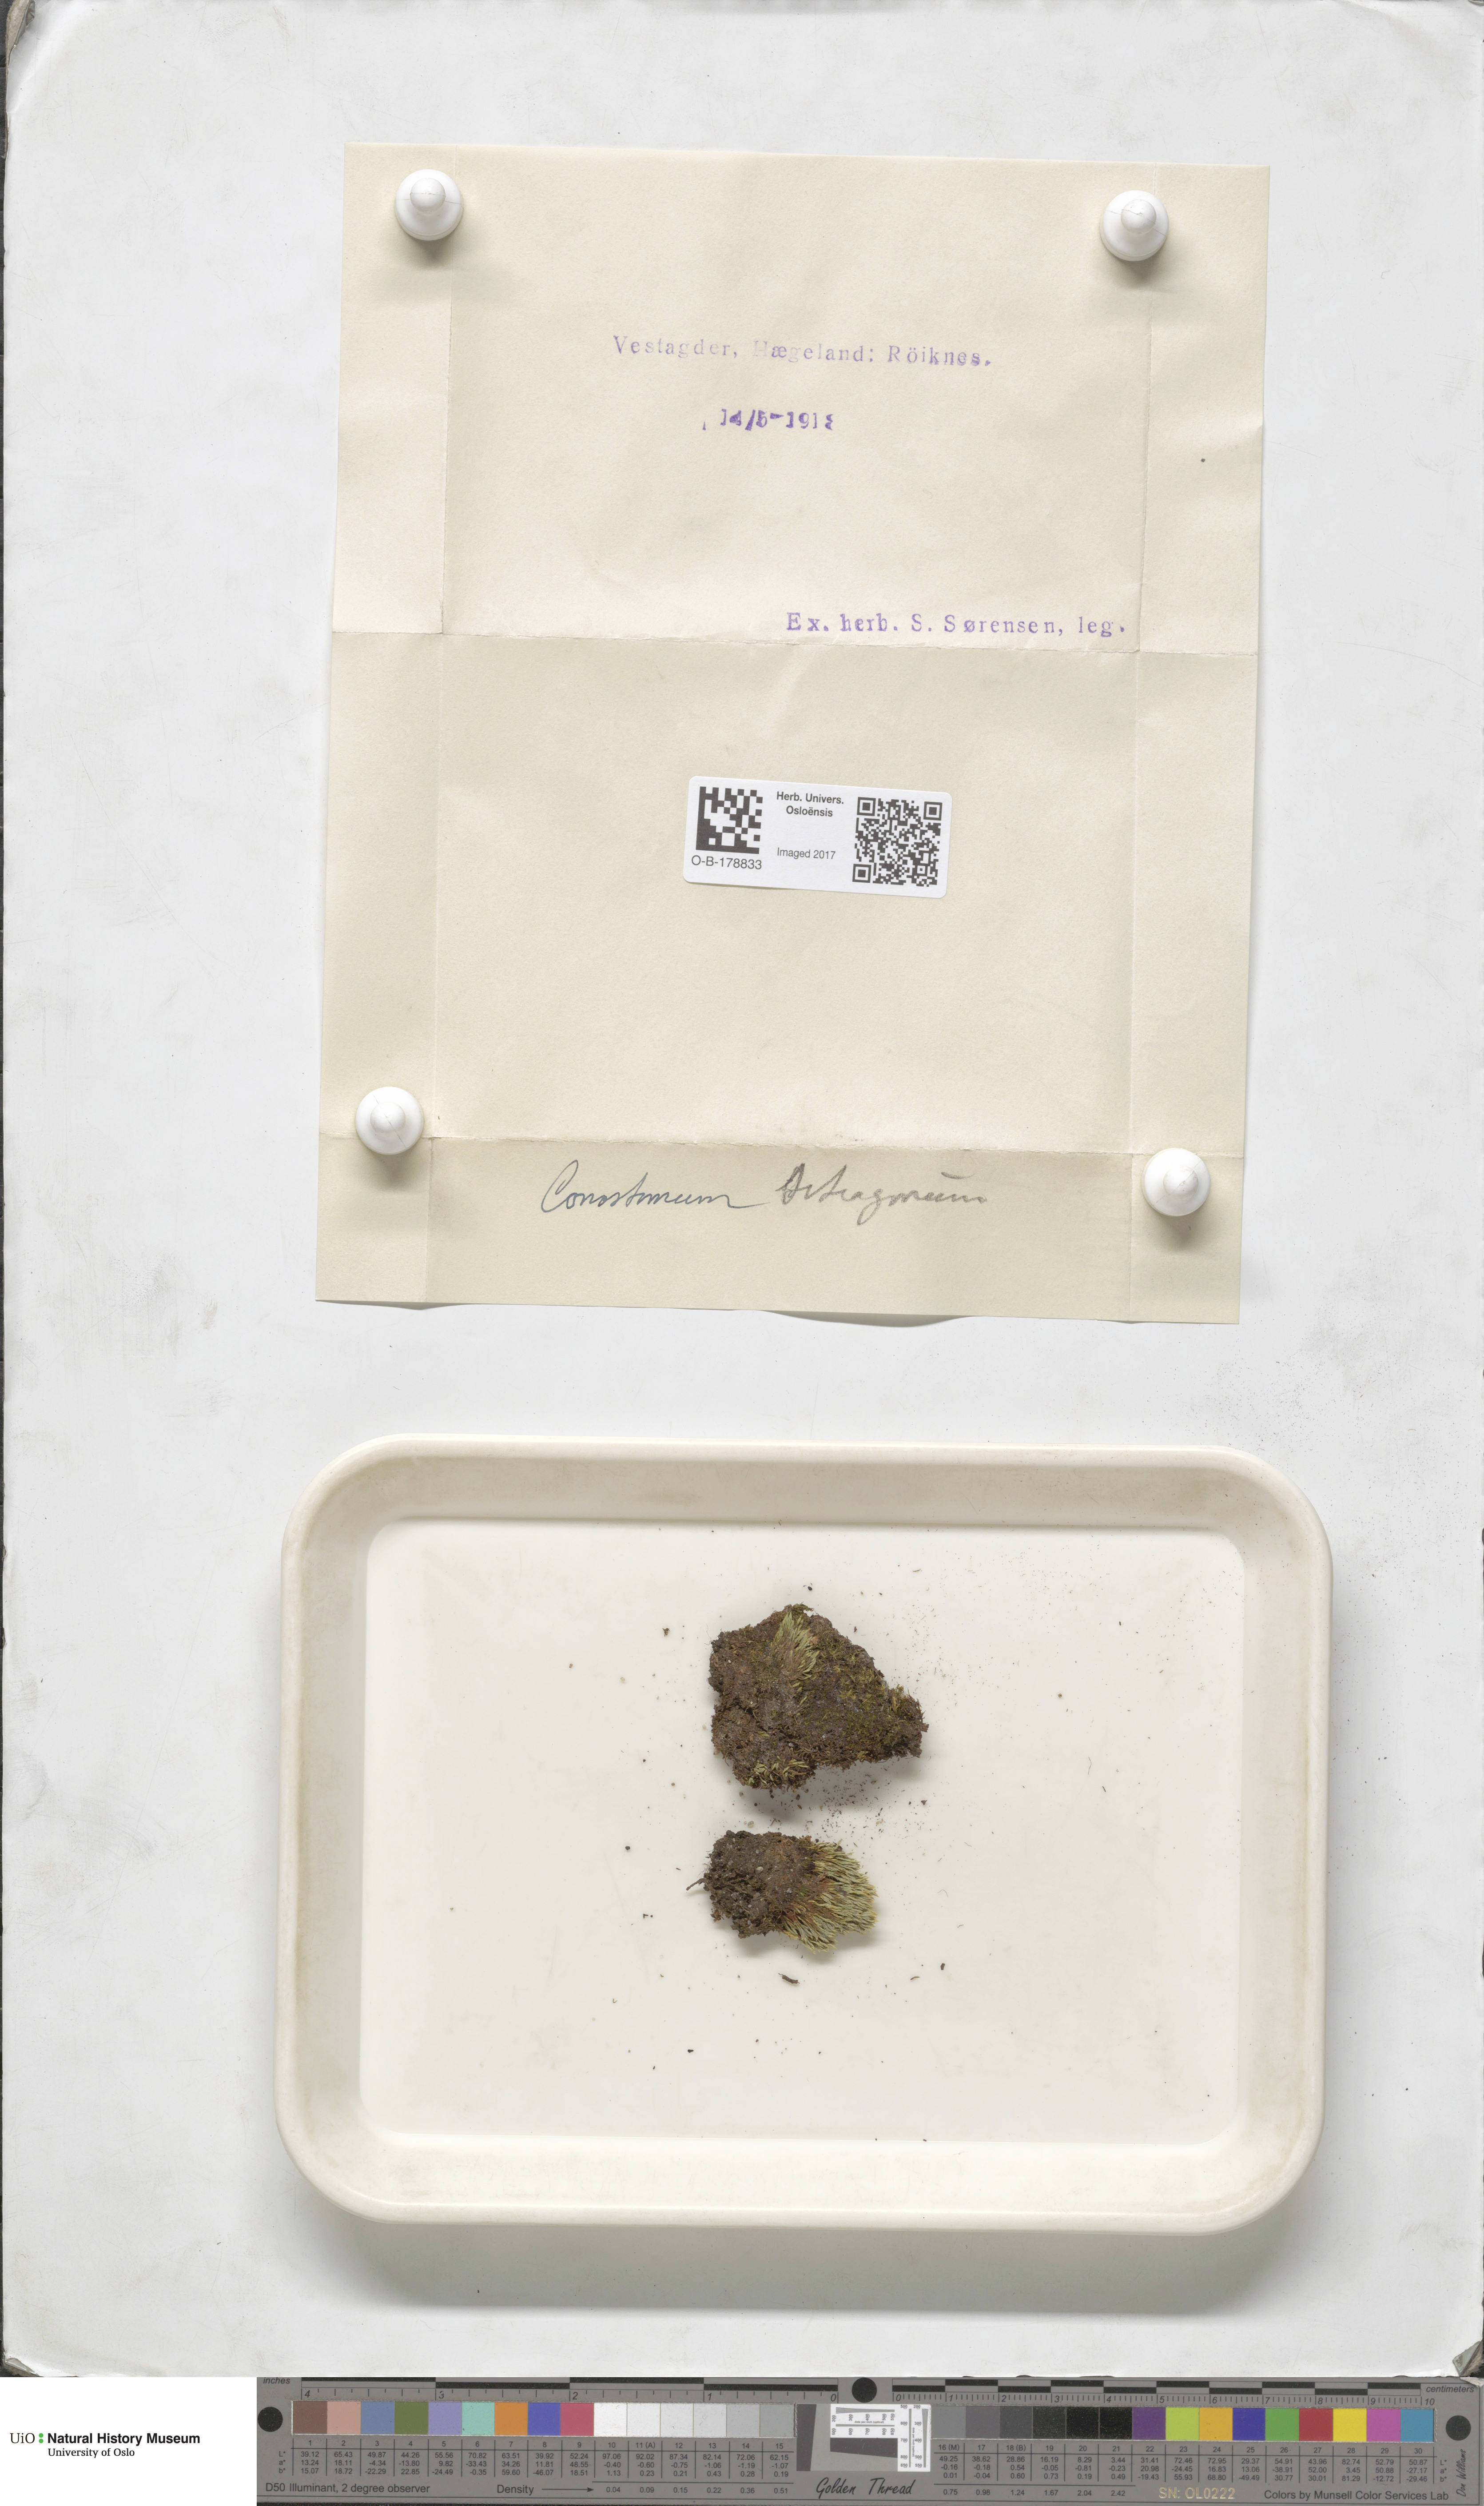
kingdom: Plantae
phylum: Bryophyta
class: Bryopsida
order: Bartramiales
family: Bartramiaceae
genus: Conostomum
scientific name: Conostomum tetragonum
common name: Helmet moss
